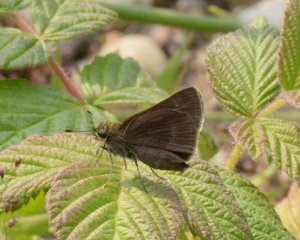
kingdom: Animalia
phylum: Arthropoda
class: Insecta
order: Lepidoptera
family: Hesperiidae
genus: Euphyes
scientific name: Euphyes vestris
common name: Dun Skipper
